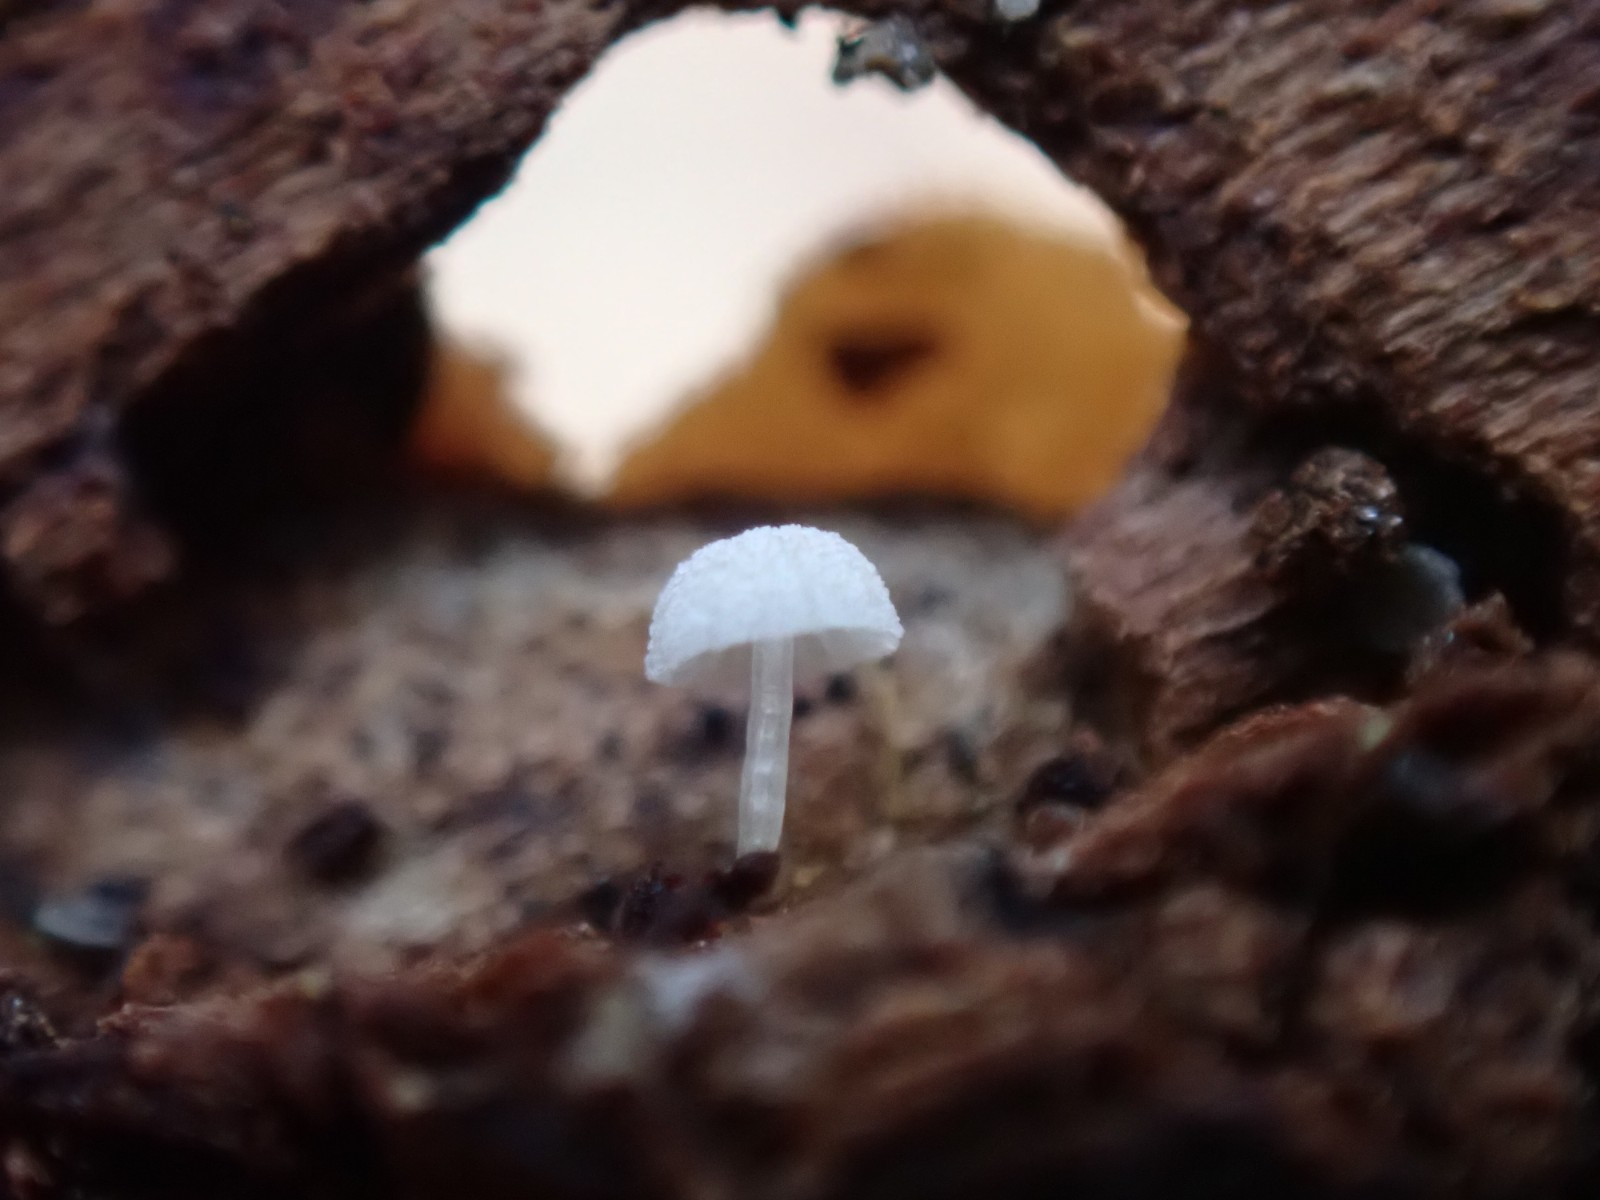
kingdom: Fungi
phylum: Basidiomycota
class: Agaricomycetes
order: Agaricales
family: Mycenaceae
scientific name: Mycenaceae
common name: huesvampfamilien
